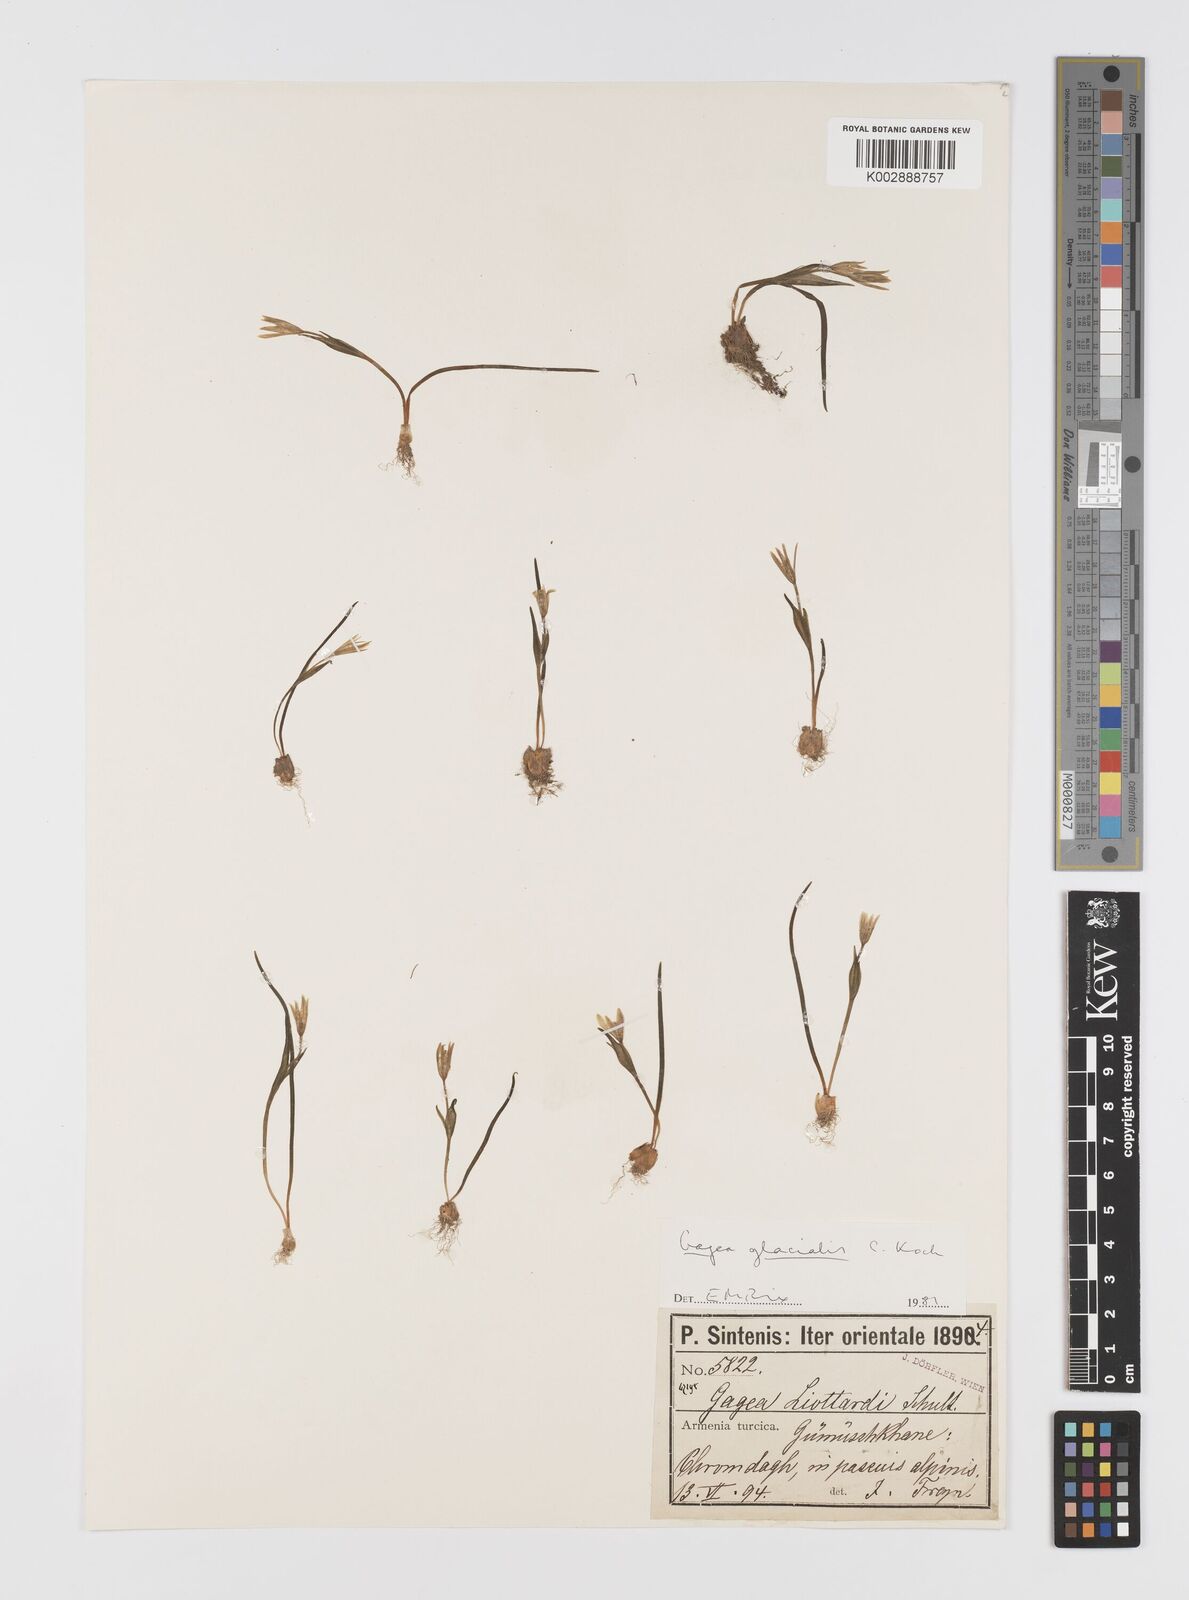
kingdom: Plantae
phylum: Tracheophyta
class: Liliopsida
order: Liliales
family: Liliaceae
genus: Gagea
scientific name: Gagea glacialis
